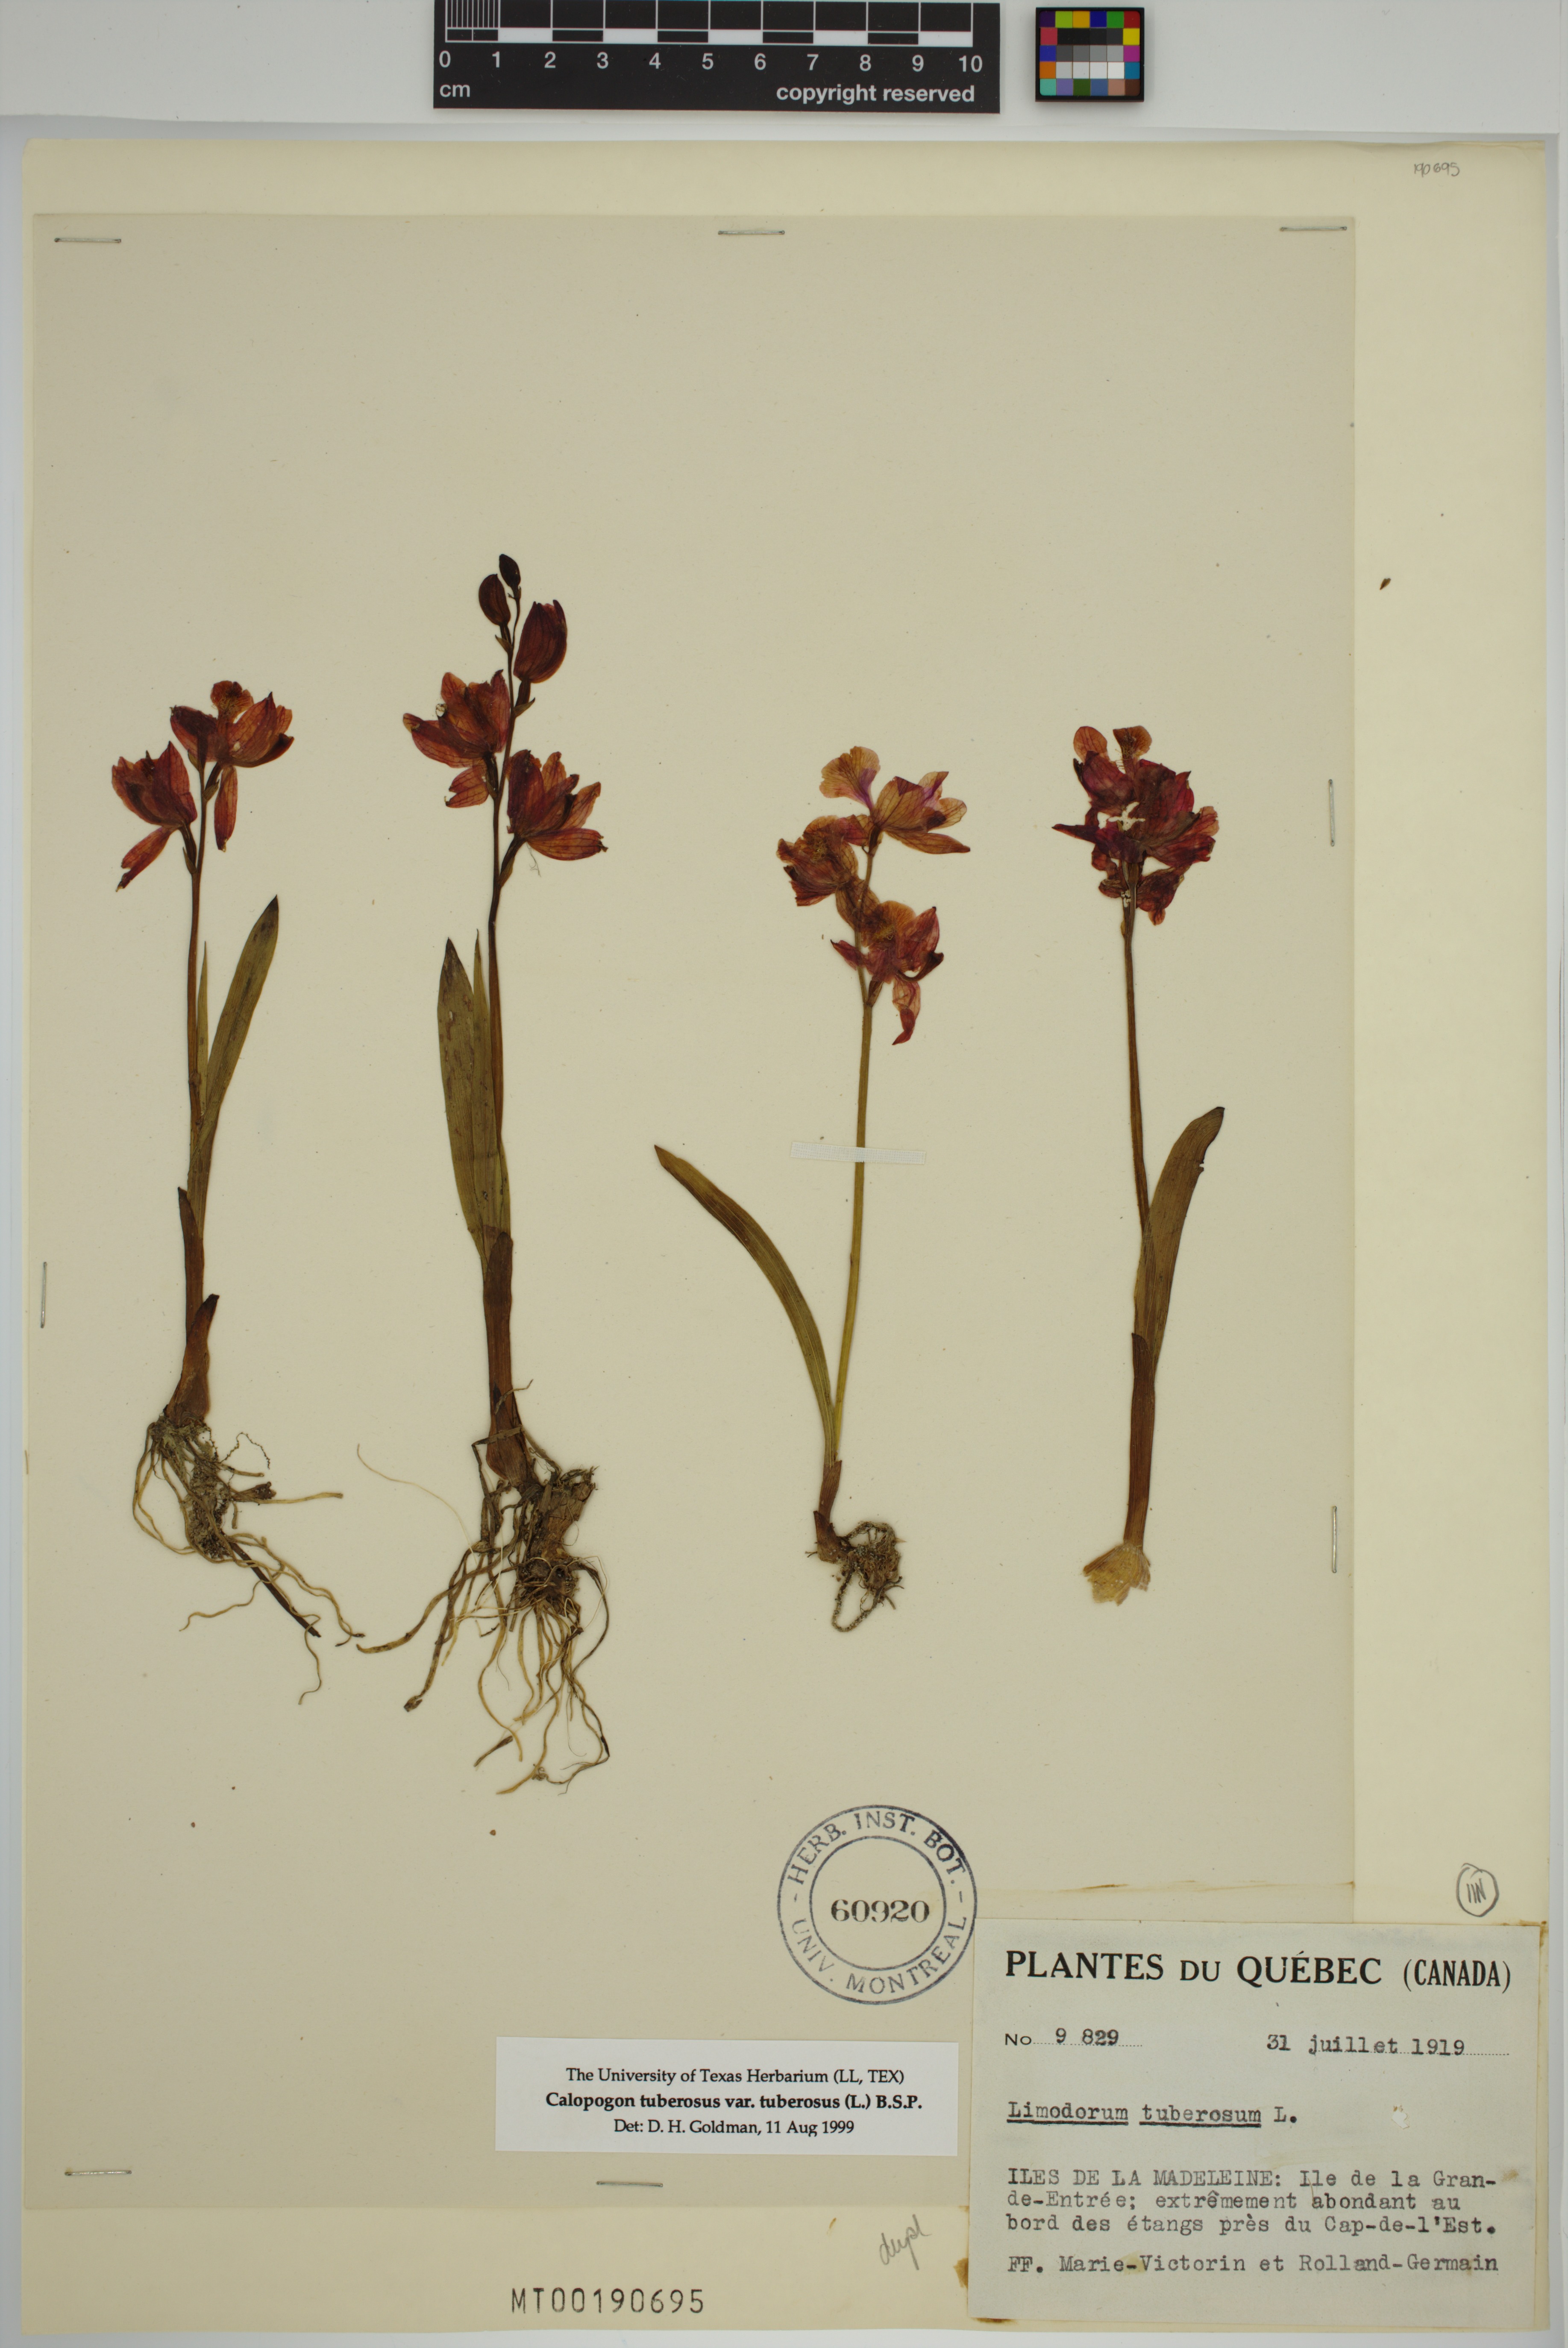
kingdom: Plantae
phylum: Tracheophyta
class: Liliopsida
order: Asparagales
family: Orchidaceae
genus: Calopogon
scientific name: Calopogon tuberosus
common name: Grass-pink
